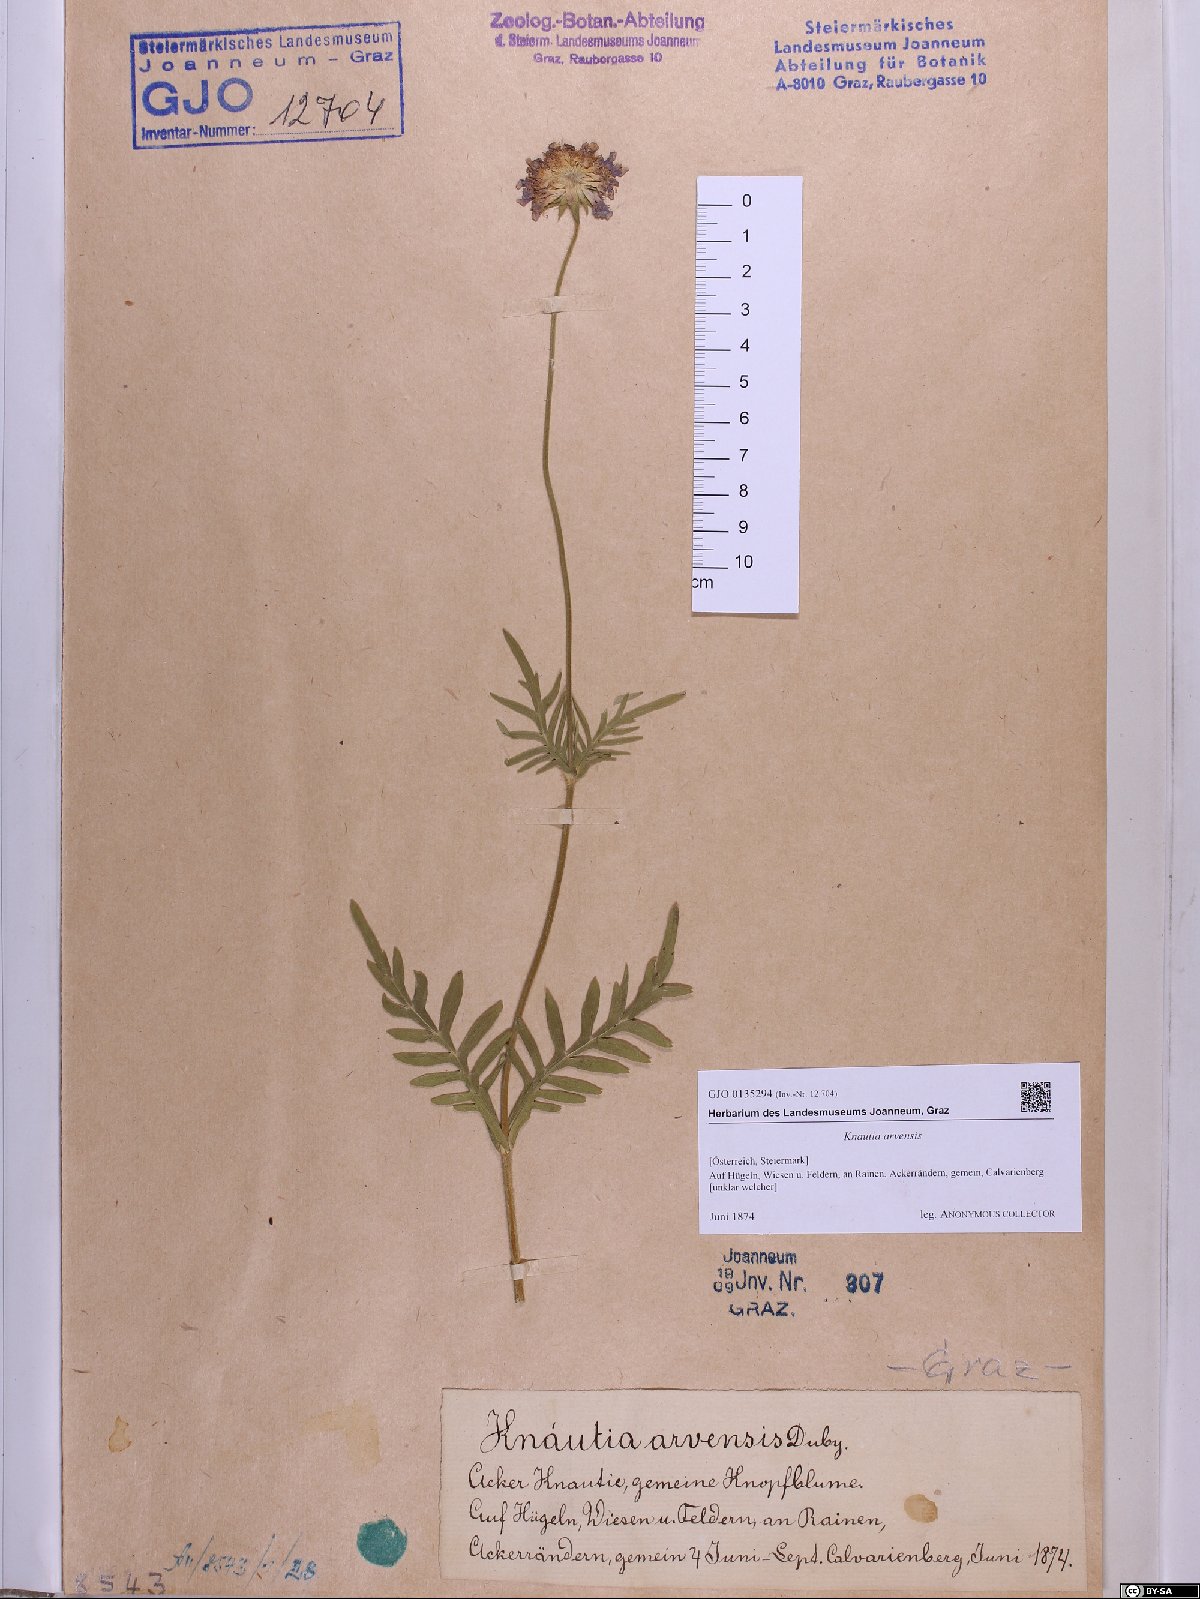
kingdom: Plantae
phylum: Tracheophyta
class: Magnoliopsida
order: Dipsacales
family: Caprifoliaceae
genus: Knautia
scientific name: Knautia arvensis
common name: Field scabiosa
